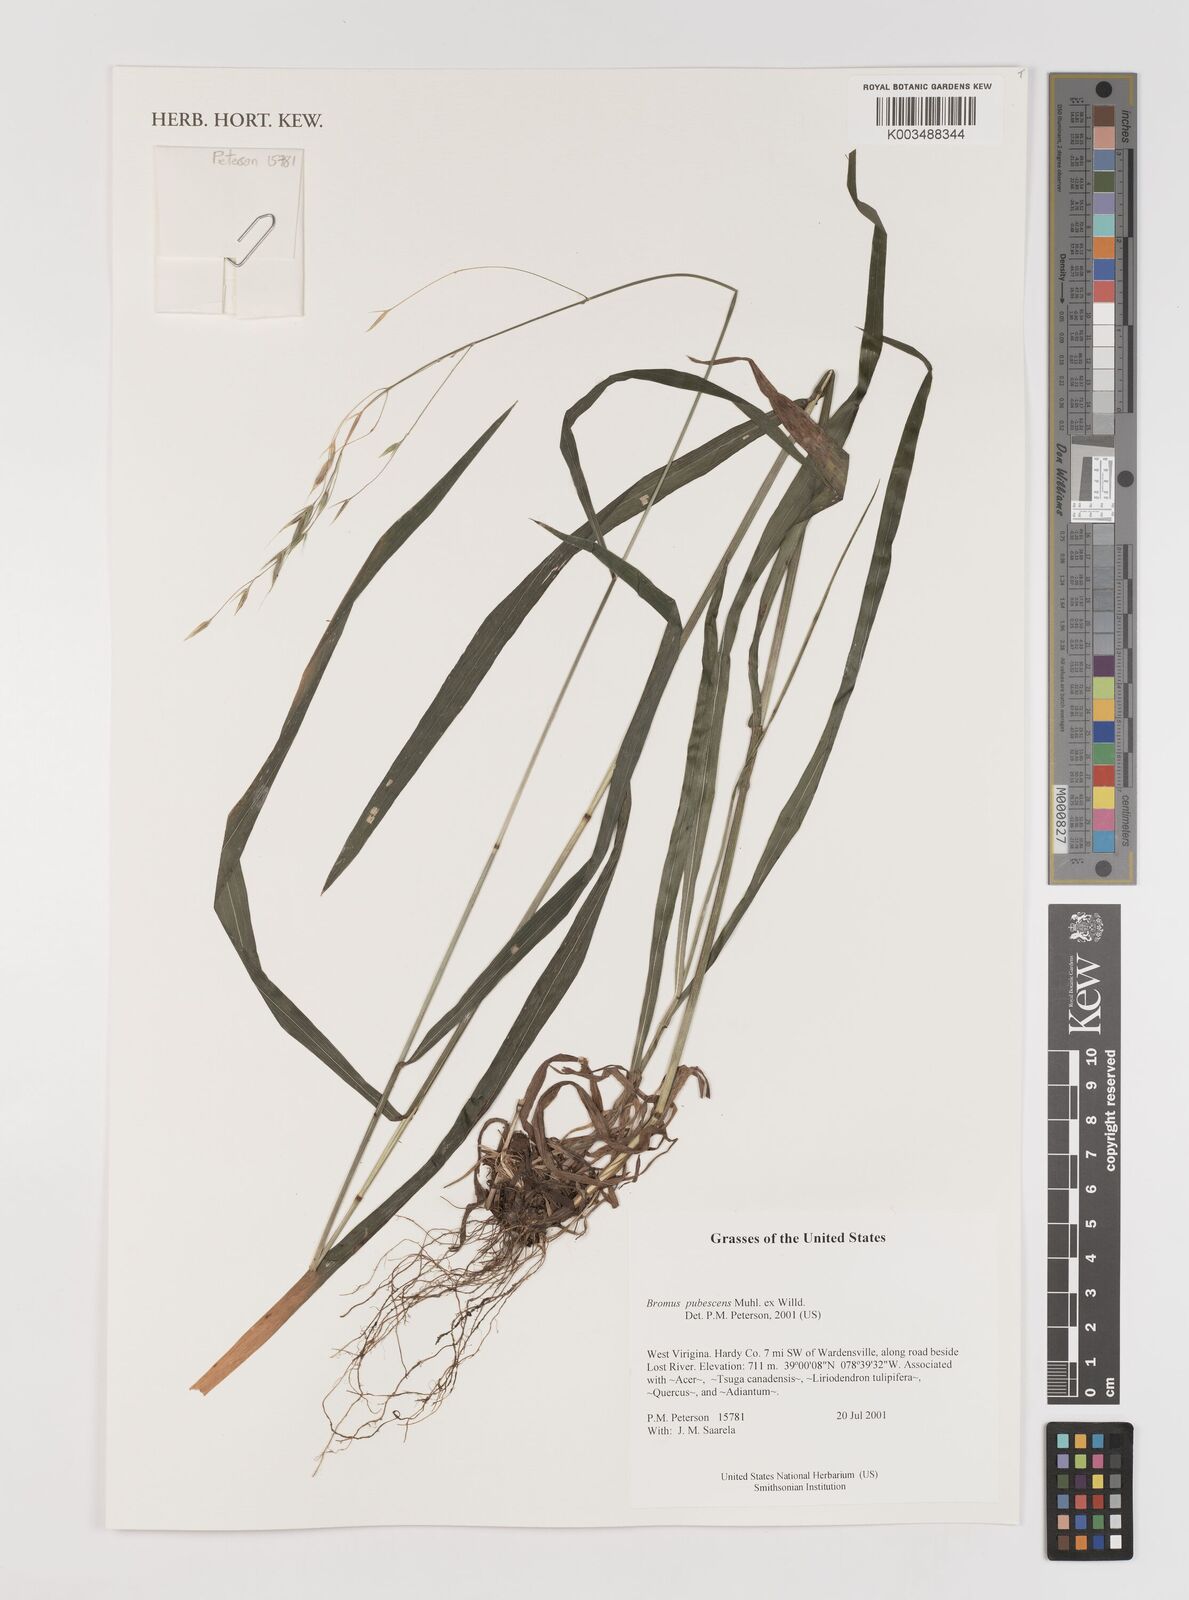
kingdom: Plantae
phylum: Tracheophyta
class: Liliopsida
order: Poales
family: Poaceae
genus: Bromus
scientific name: Bromus pubescens
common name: Hairy wood brome grass
